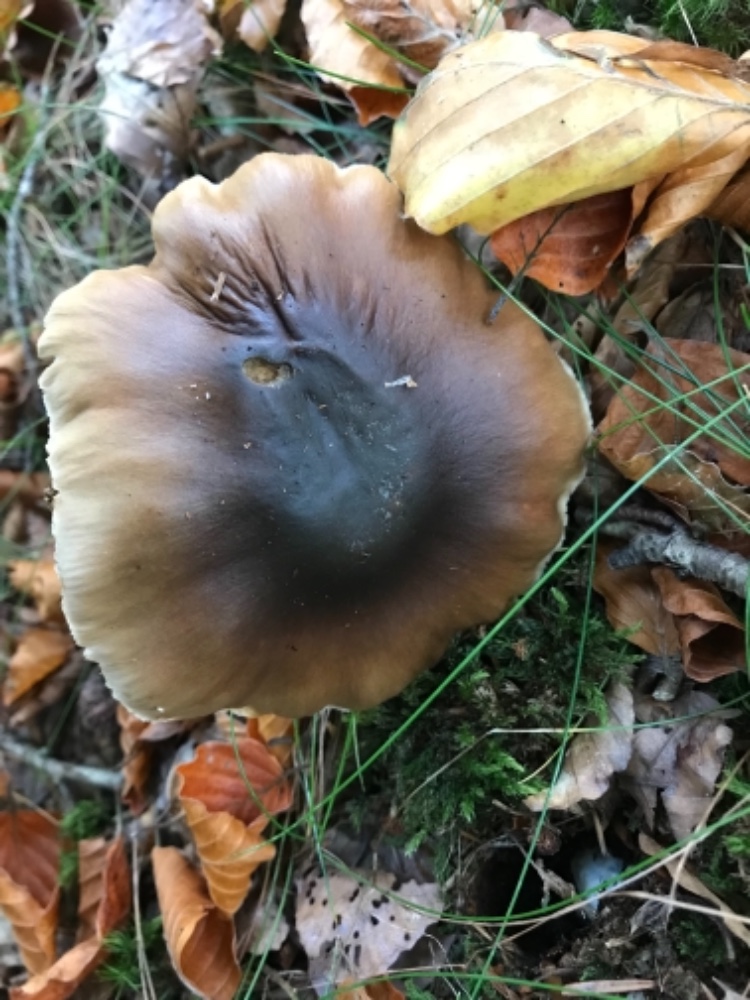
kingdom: Fungi
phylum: Basidiomycota
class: Agaricomycetes
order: Agaricales
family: Cortinariaceae
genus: Cortinarius
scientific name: Cortinarius elatior
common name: høj slørhat
